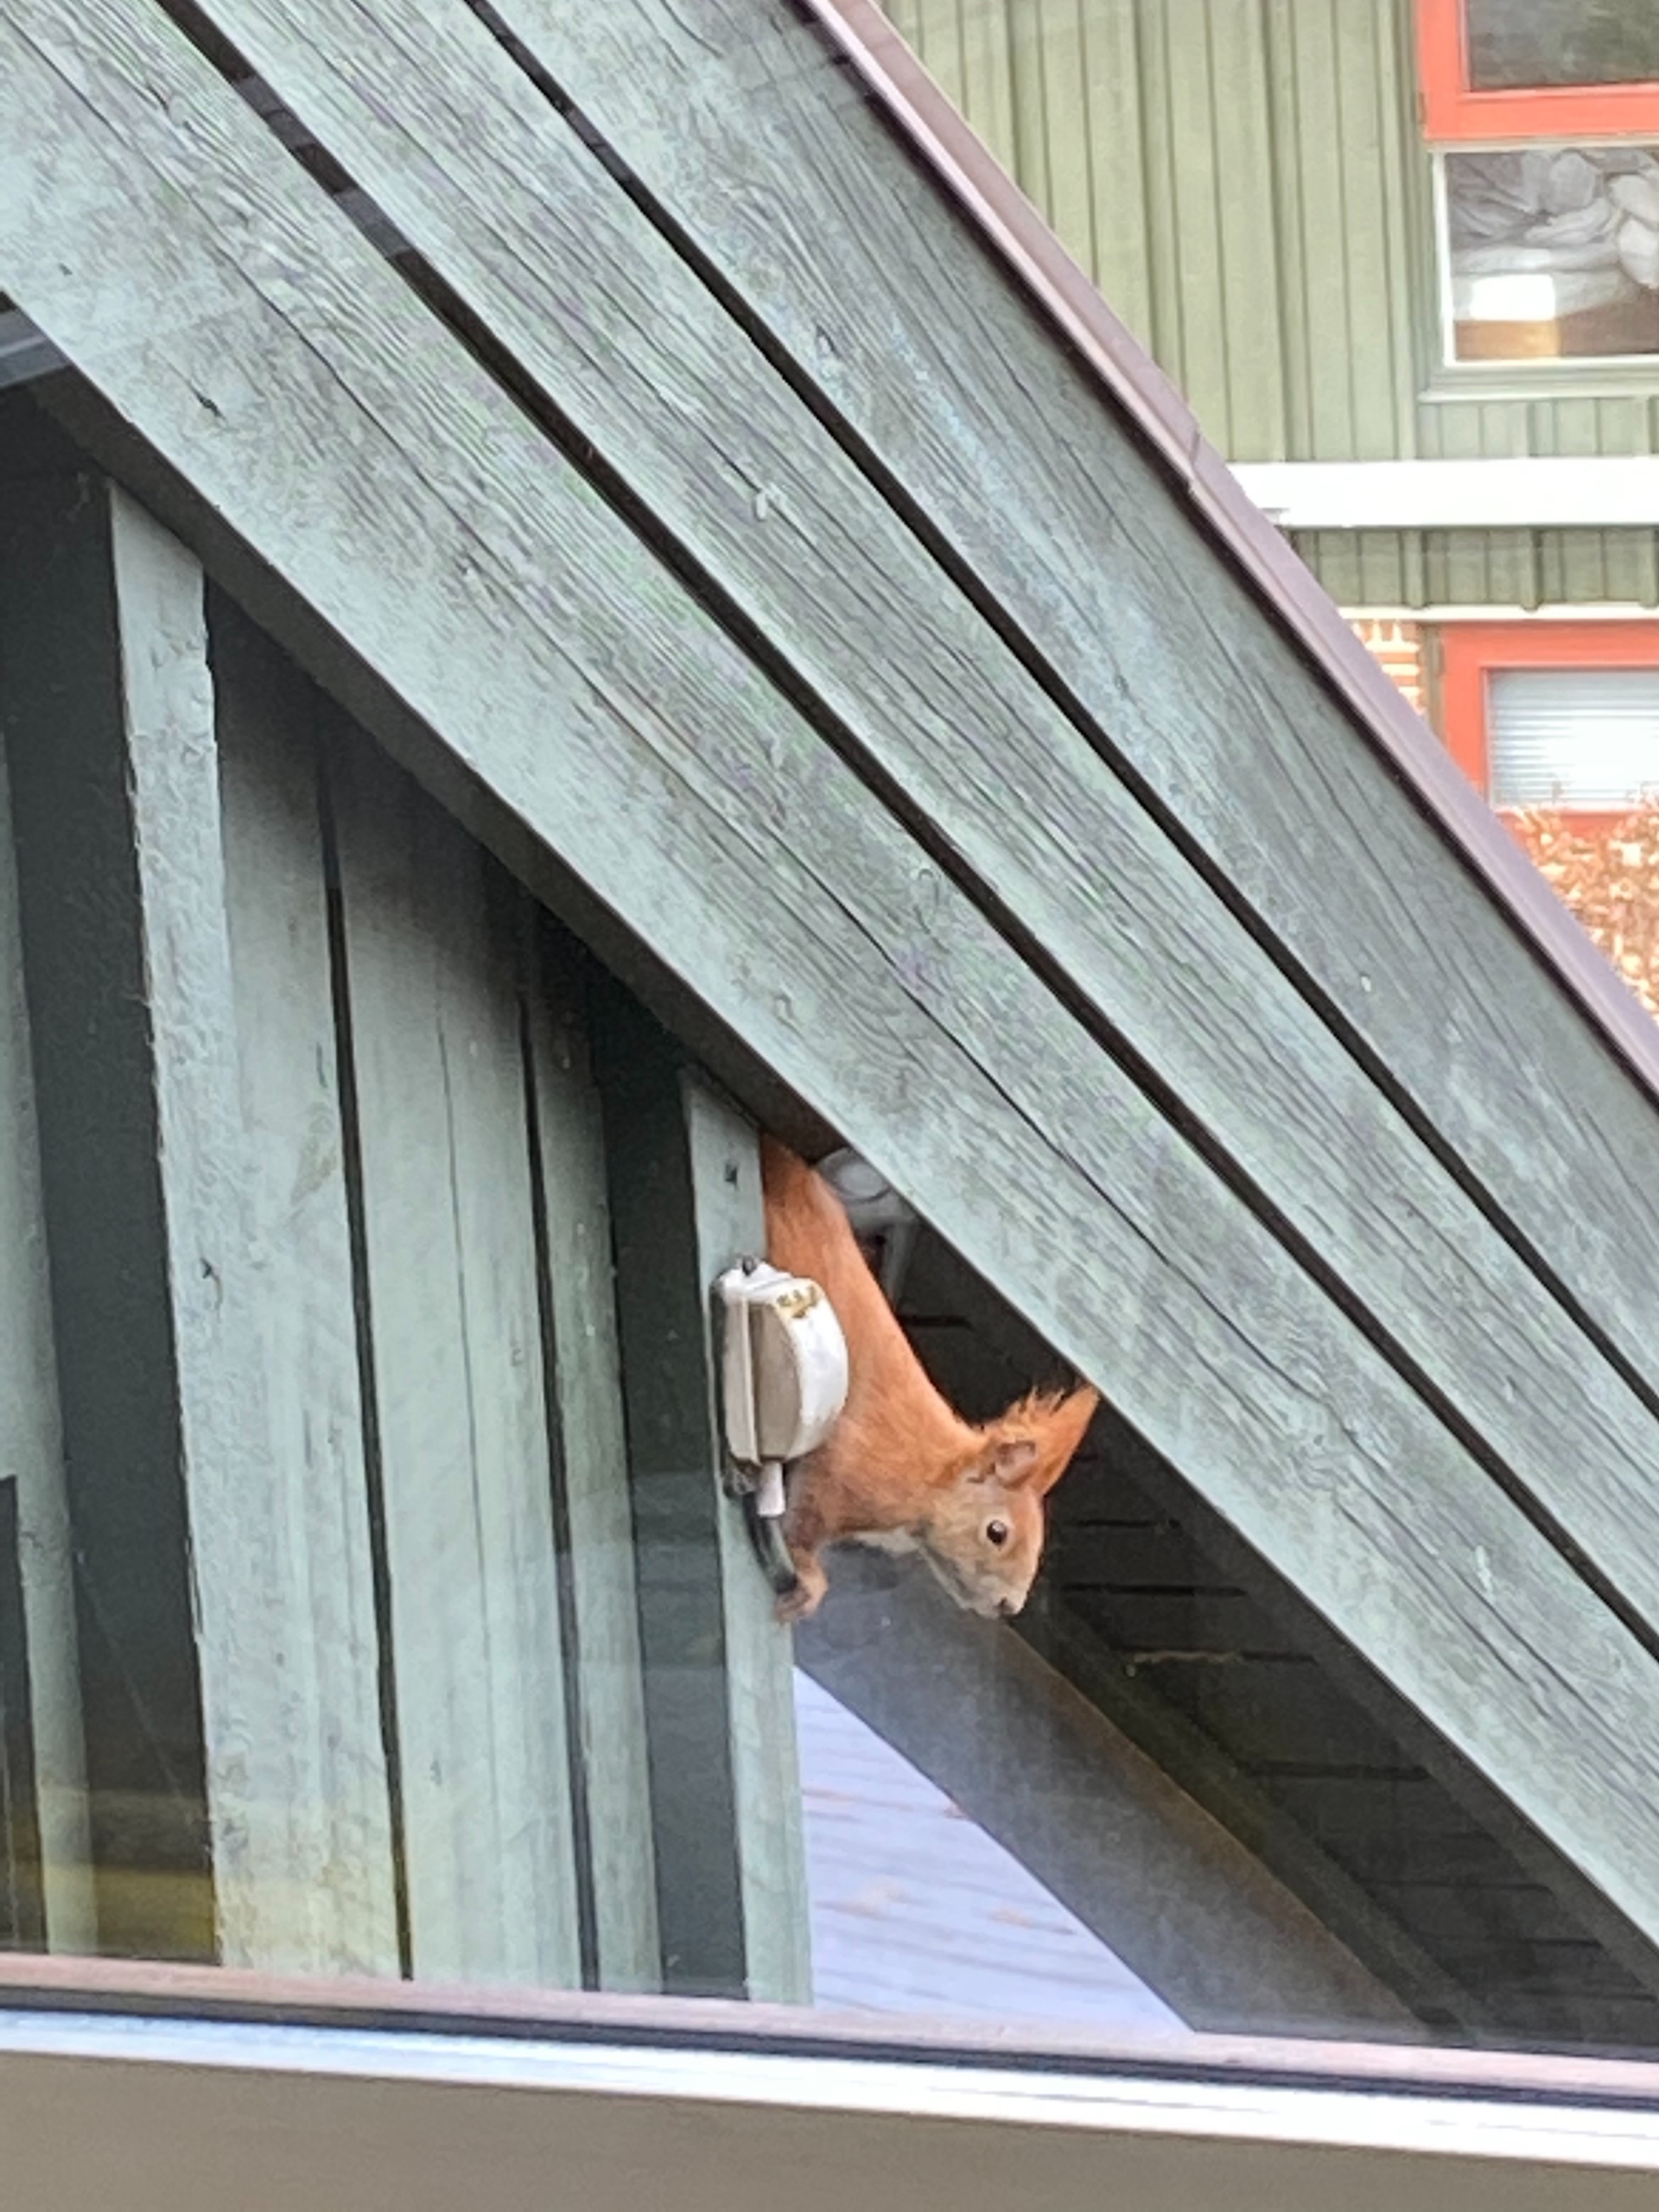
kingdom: Animalia
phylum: Chordata
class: Mammalia
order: Rodentia
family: Sciuridae
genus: Sciurus
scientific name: Sciurus vulgaris
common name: Egern
